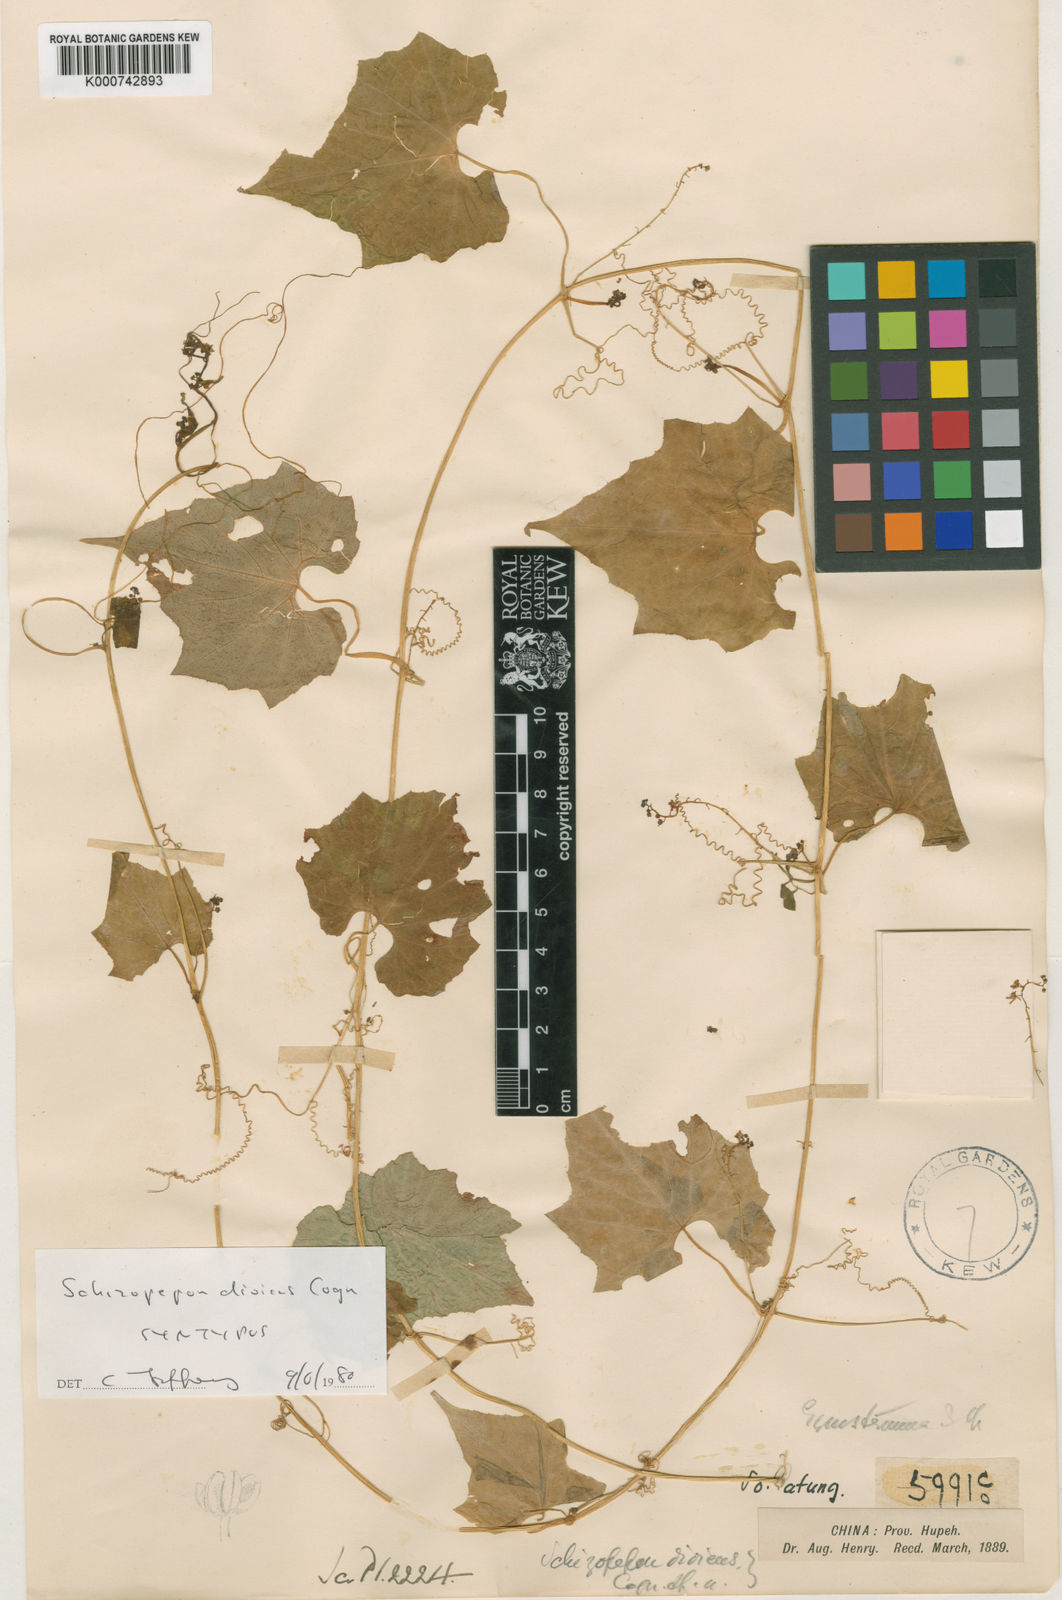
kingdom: Plantae
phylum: Tracheophyta
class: Magnoliopsida
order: Cucurbitales
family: Cucurbitaceae
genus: Schizopepon
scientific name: Schizopepon dioicus
